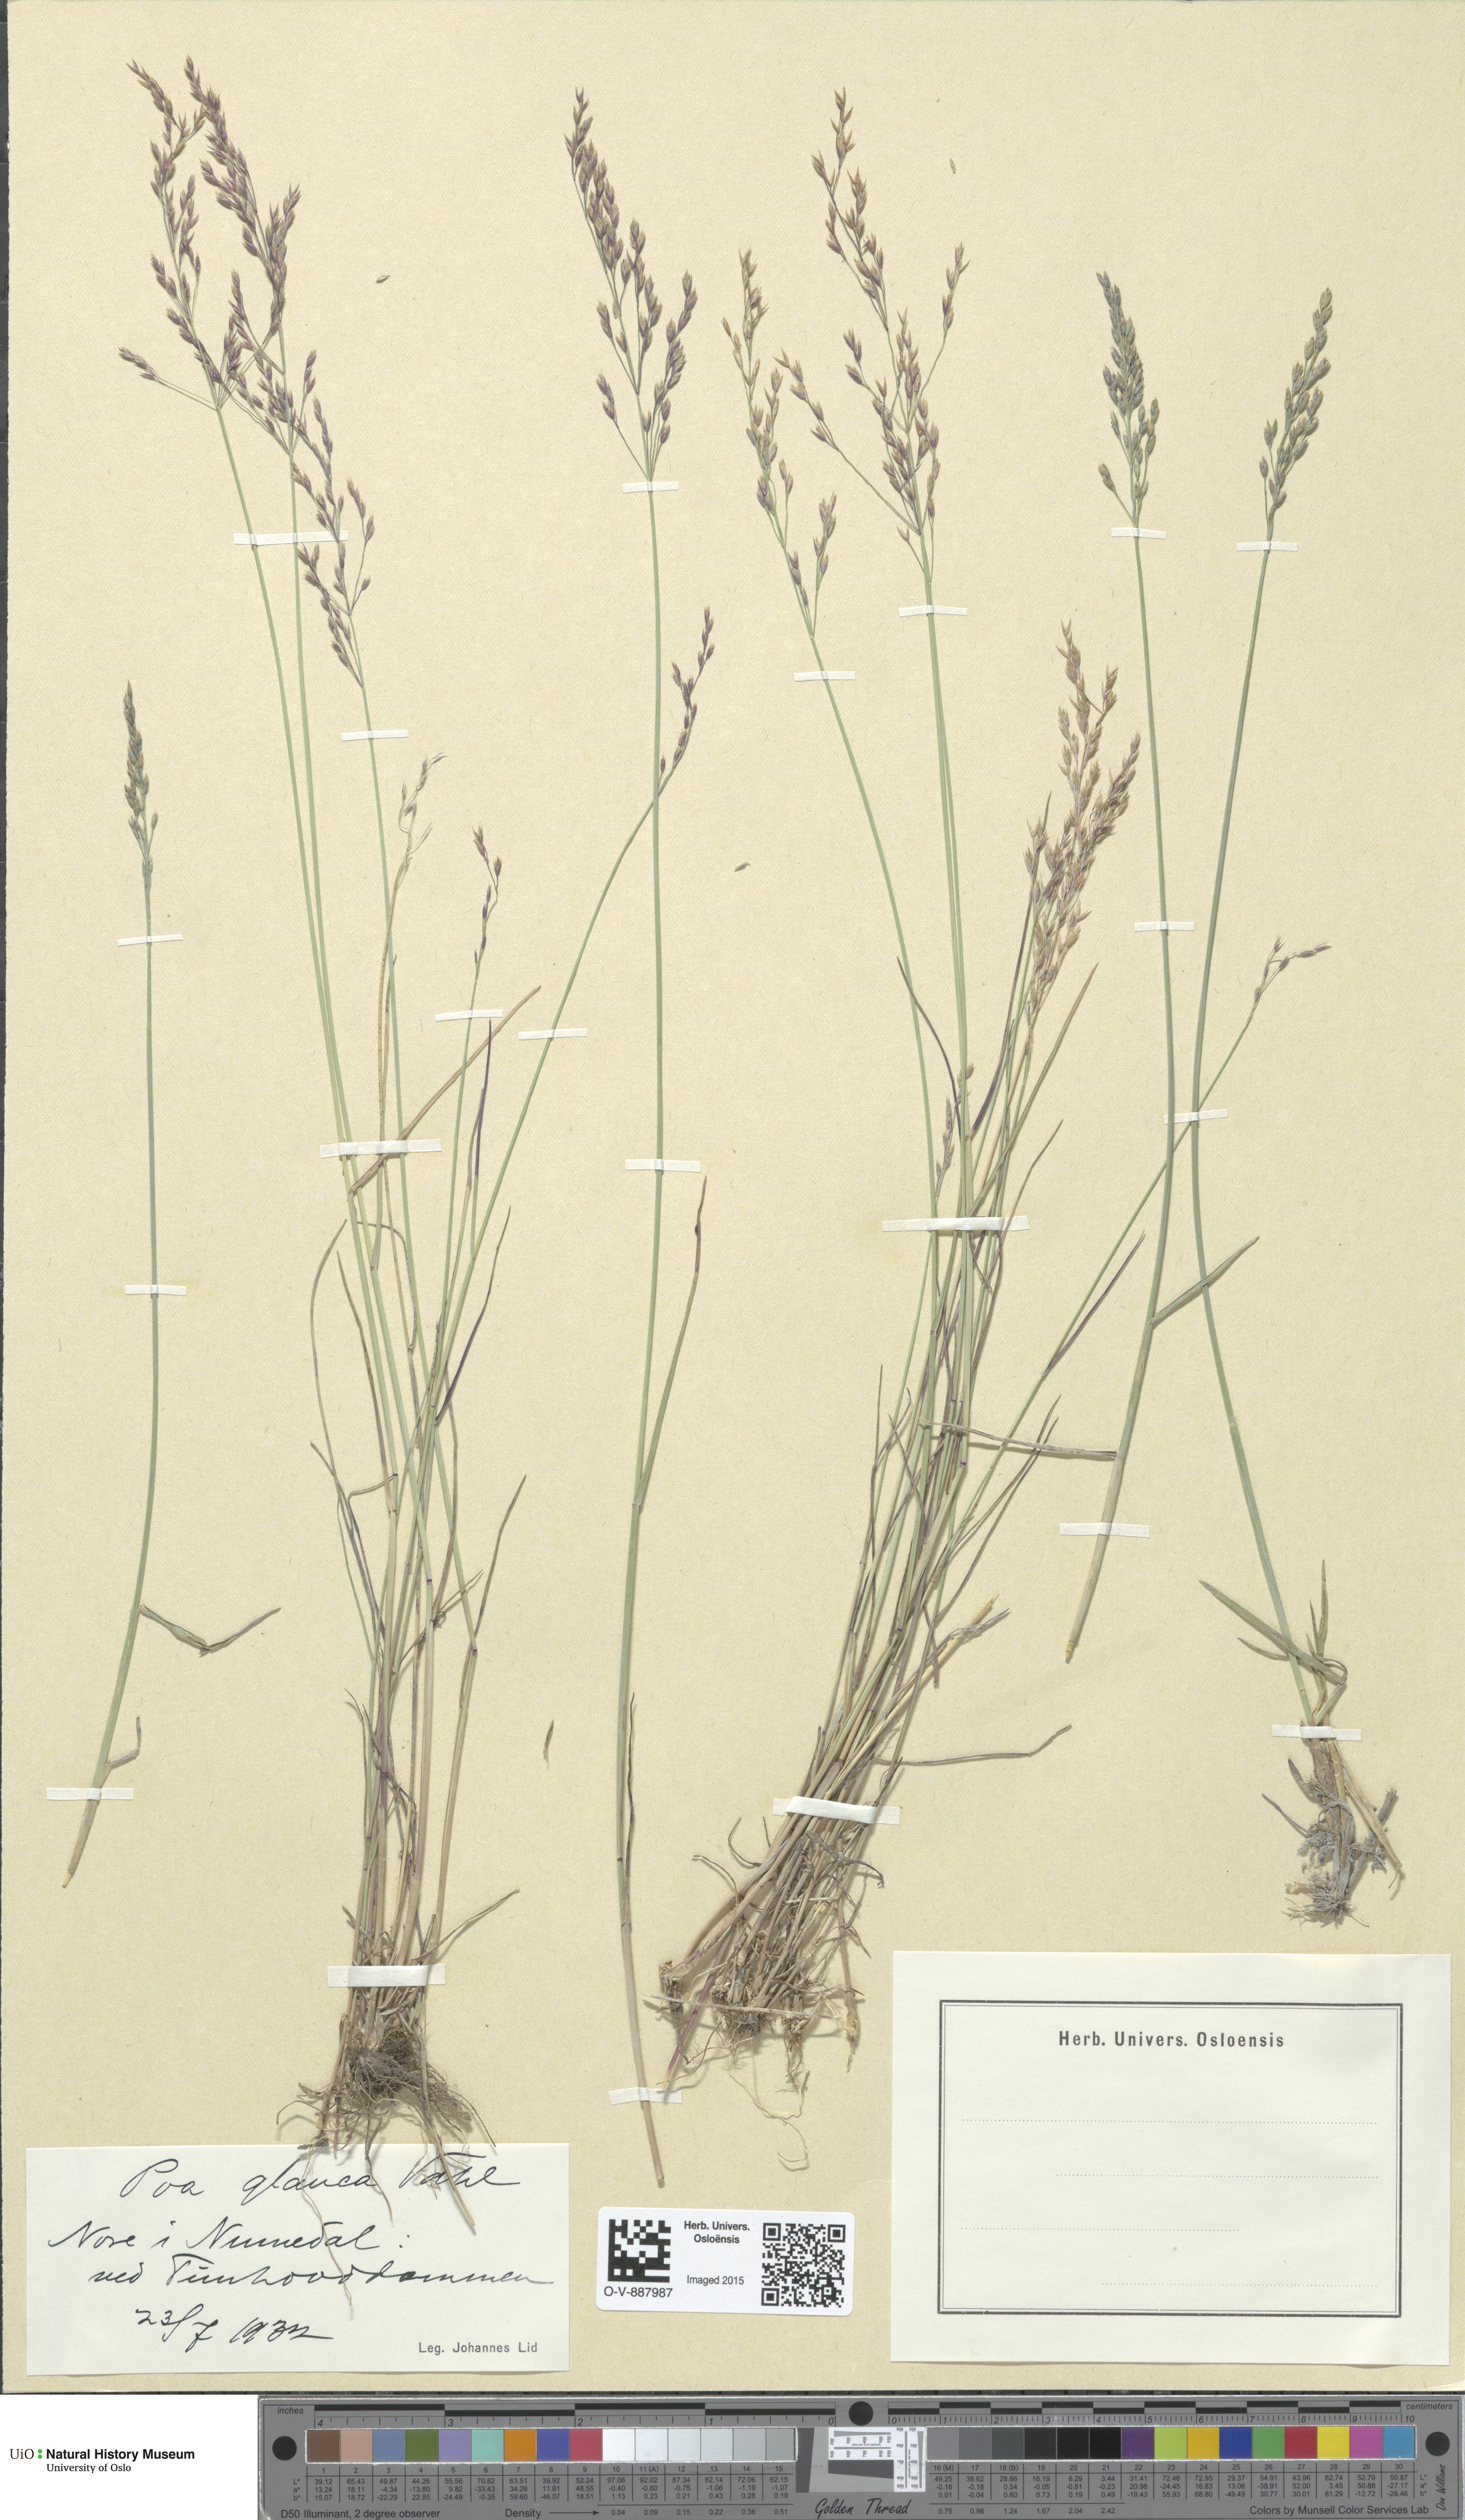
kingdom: Plantae
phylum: Tracheophyta
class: Liliopsida
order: Poales
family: Poaceae
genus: Poa
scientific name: Poa glauca
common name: Glaucous bluegrass
